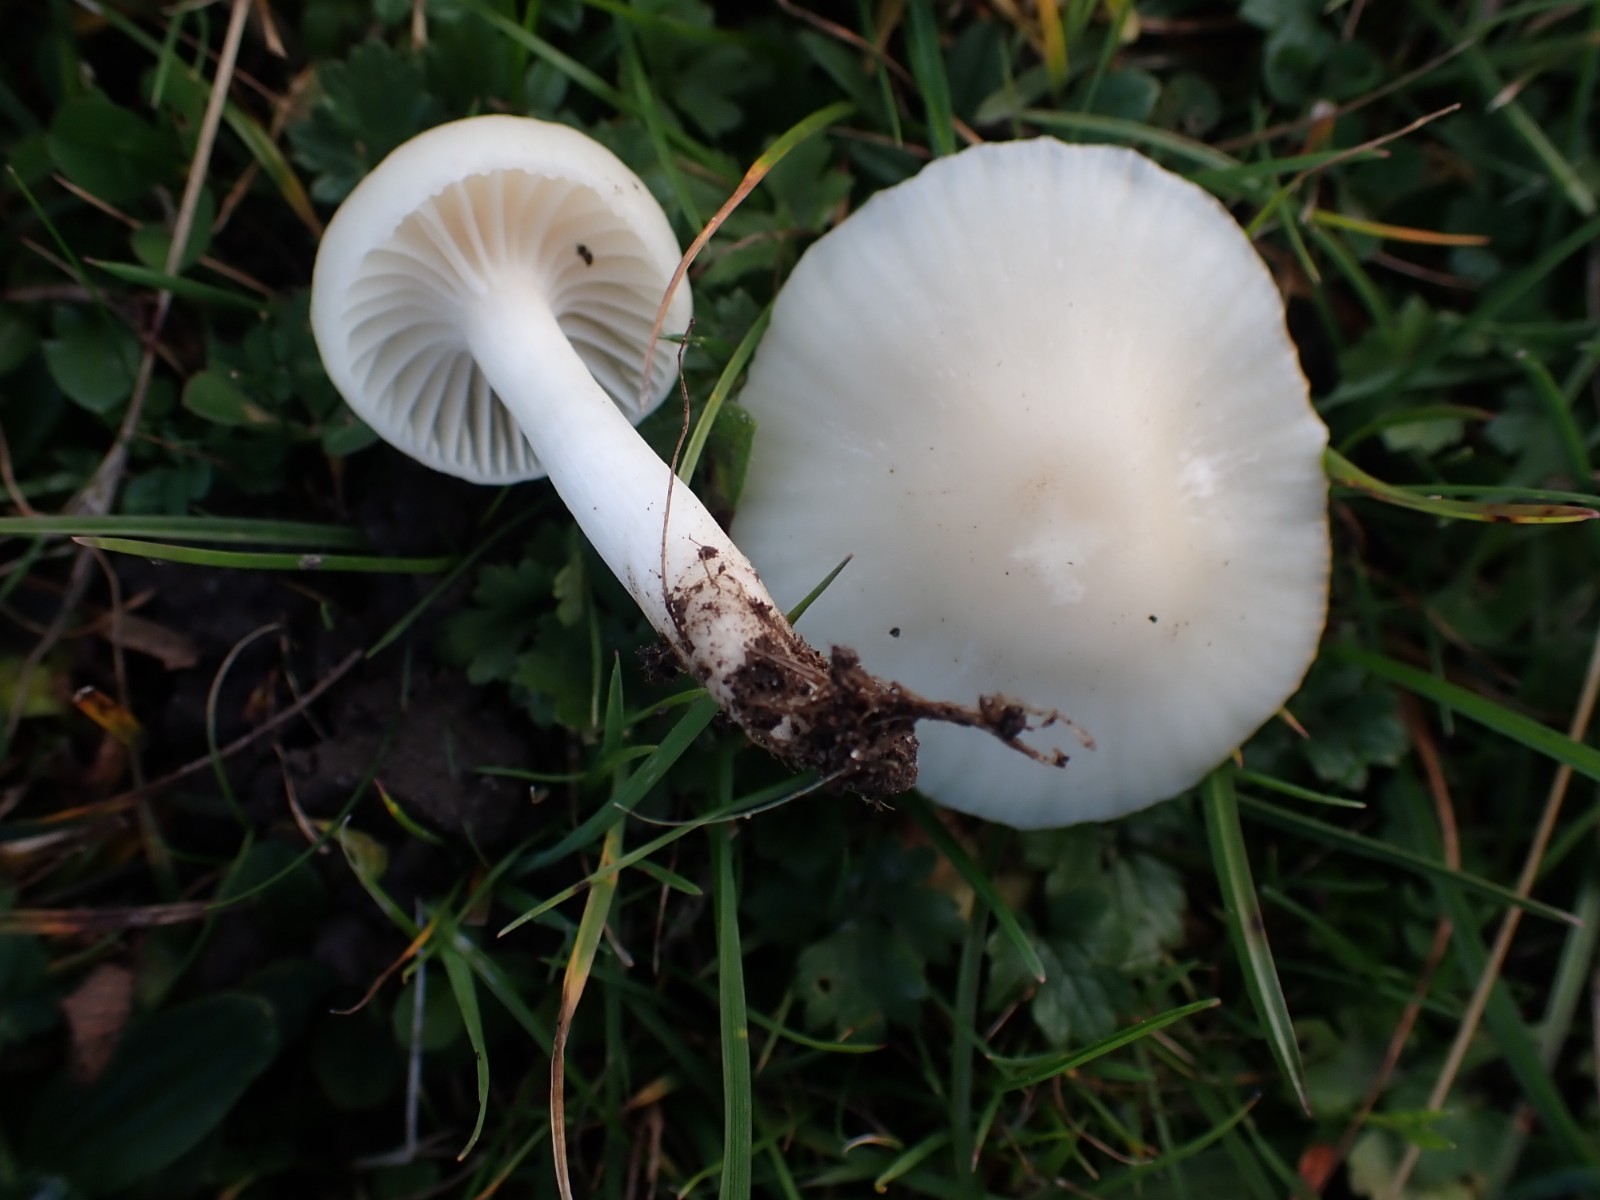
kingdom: Fungi
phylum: Basidiomycota
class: Agaricomycetes
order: Agaricales
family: Hygrophoraceae
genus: Cuphophyllus
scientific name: Cuphophyllus virgineus
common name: snehvid vokshat
